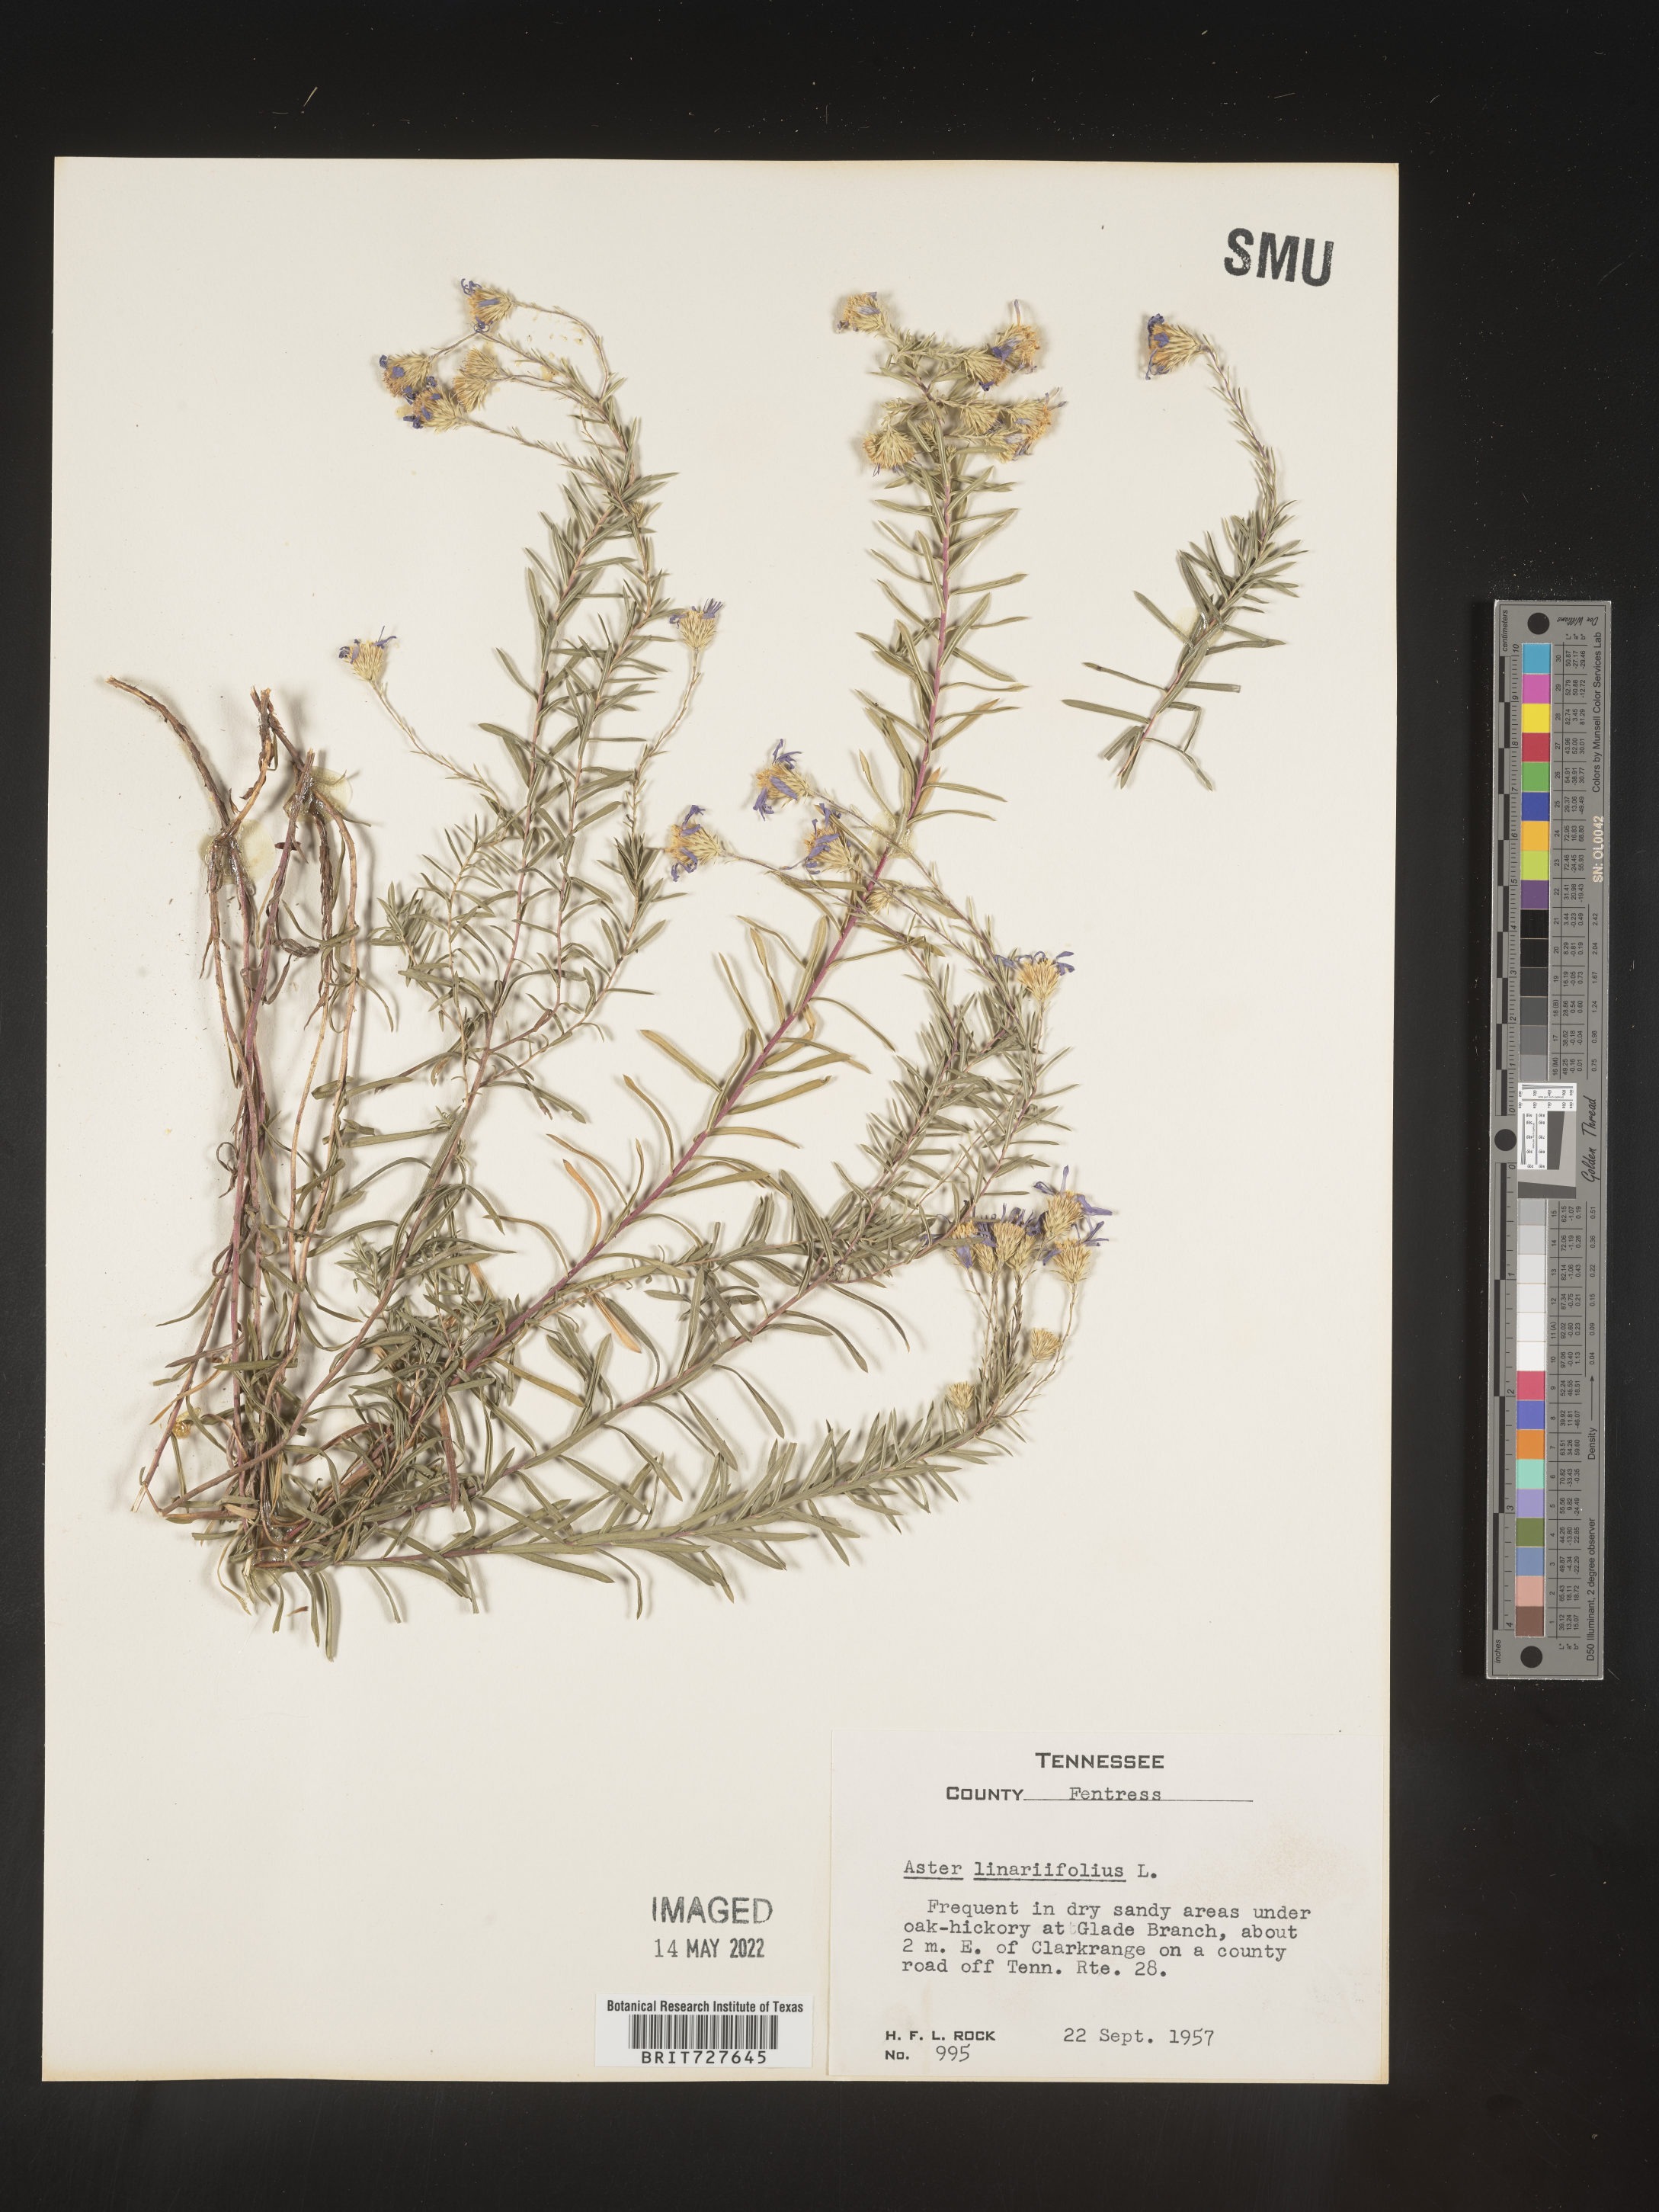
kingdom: Plantae
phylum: Tracheophyta
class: Magnoliopsida
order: Asterales
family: Asteraceae
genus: Ionactis
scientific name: Ionactis linariifolia
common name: Flax-leaf aster
